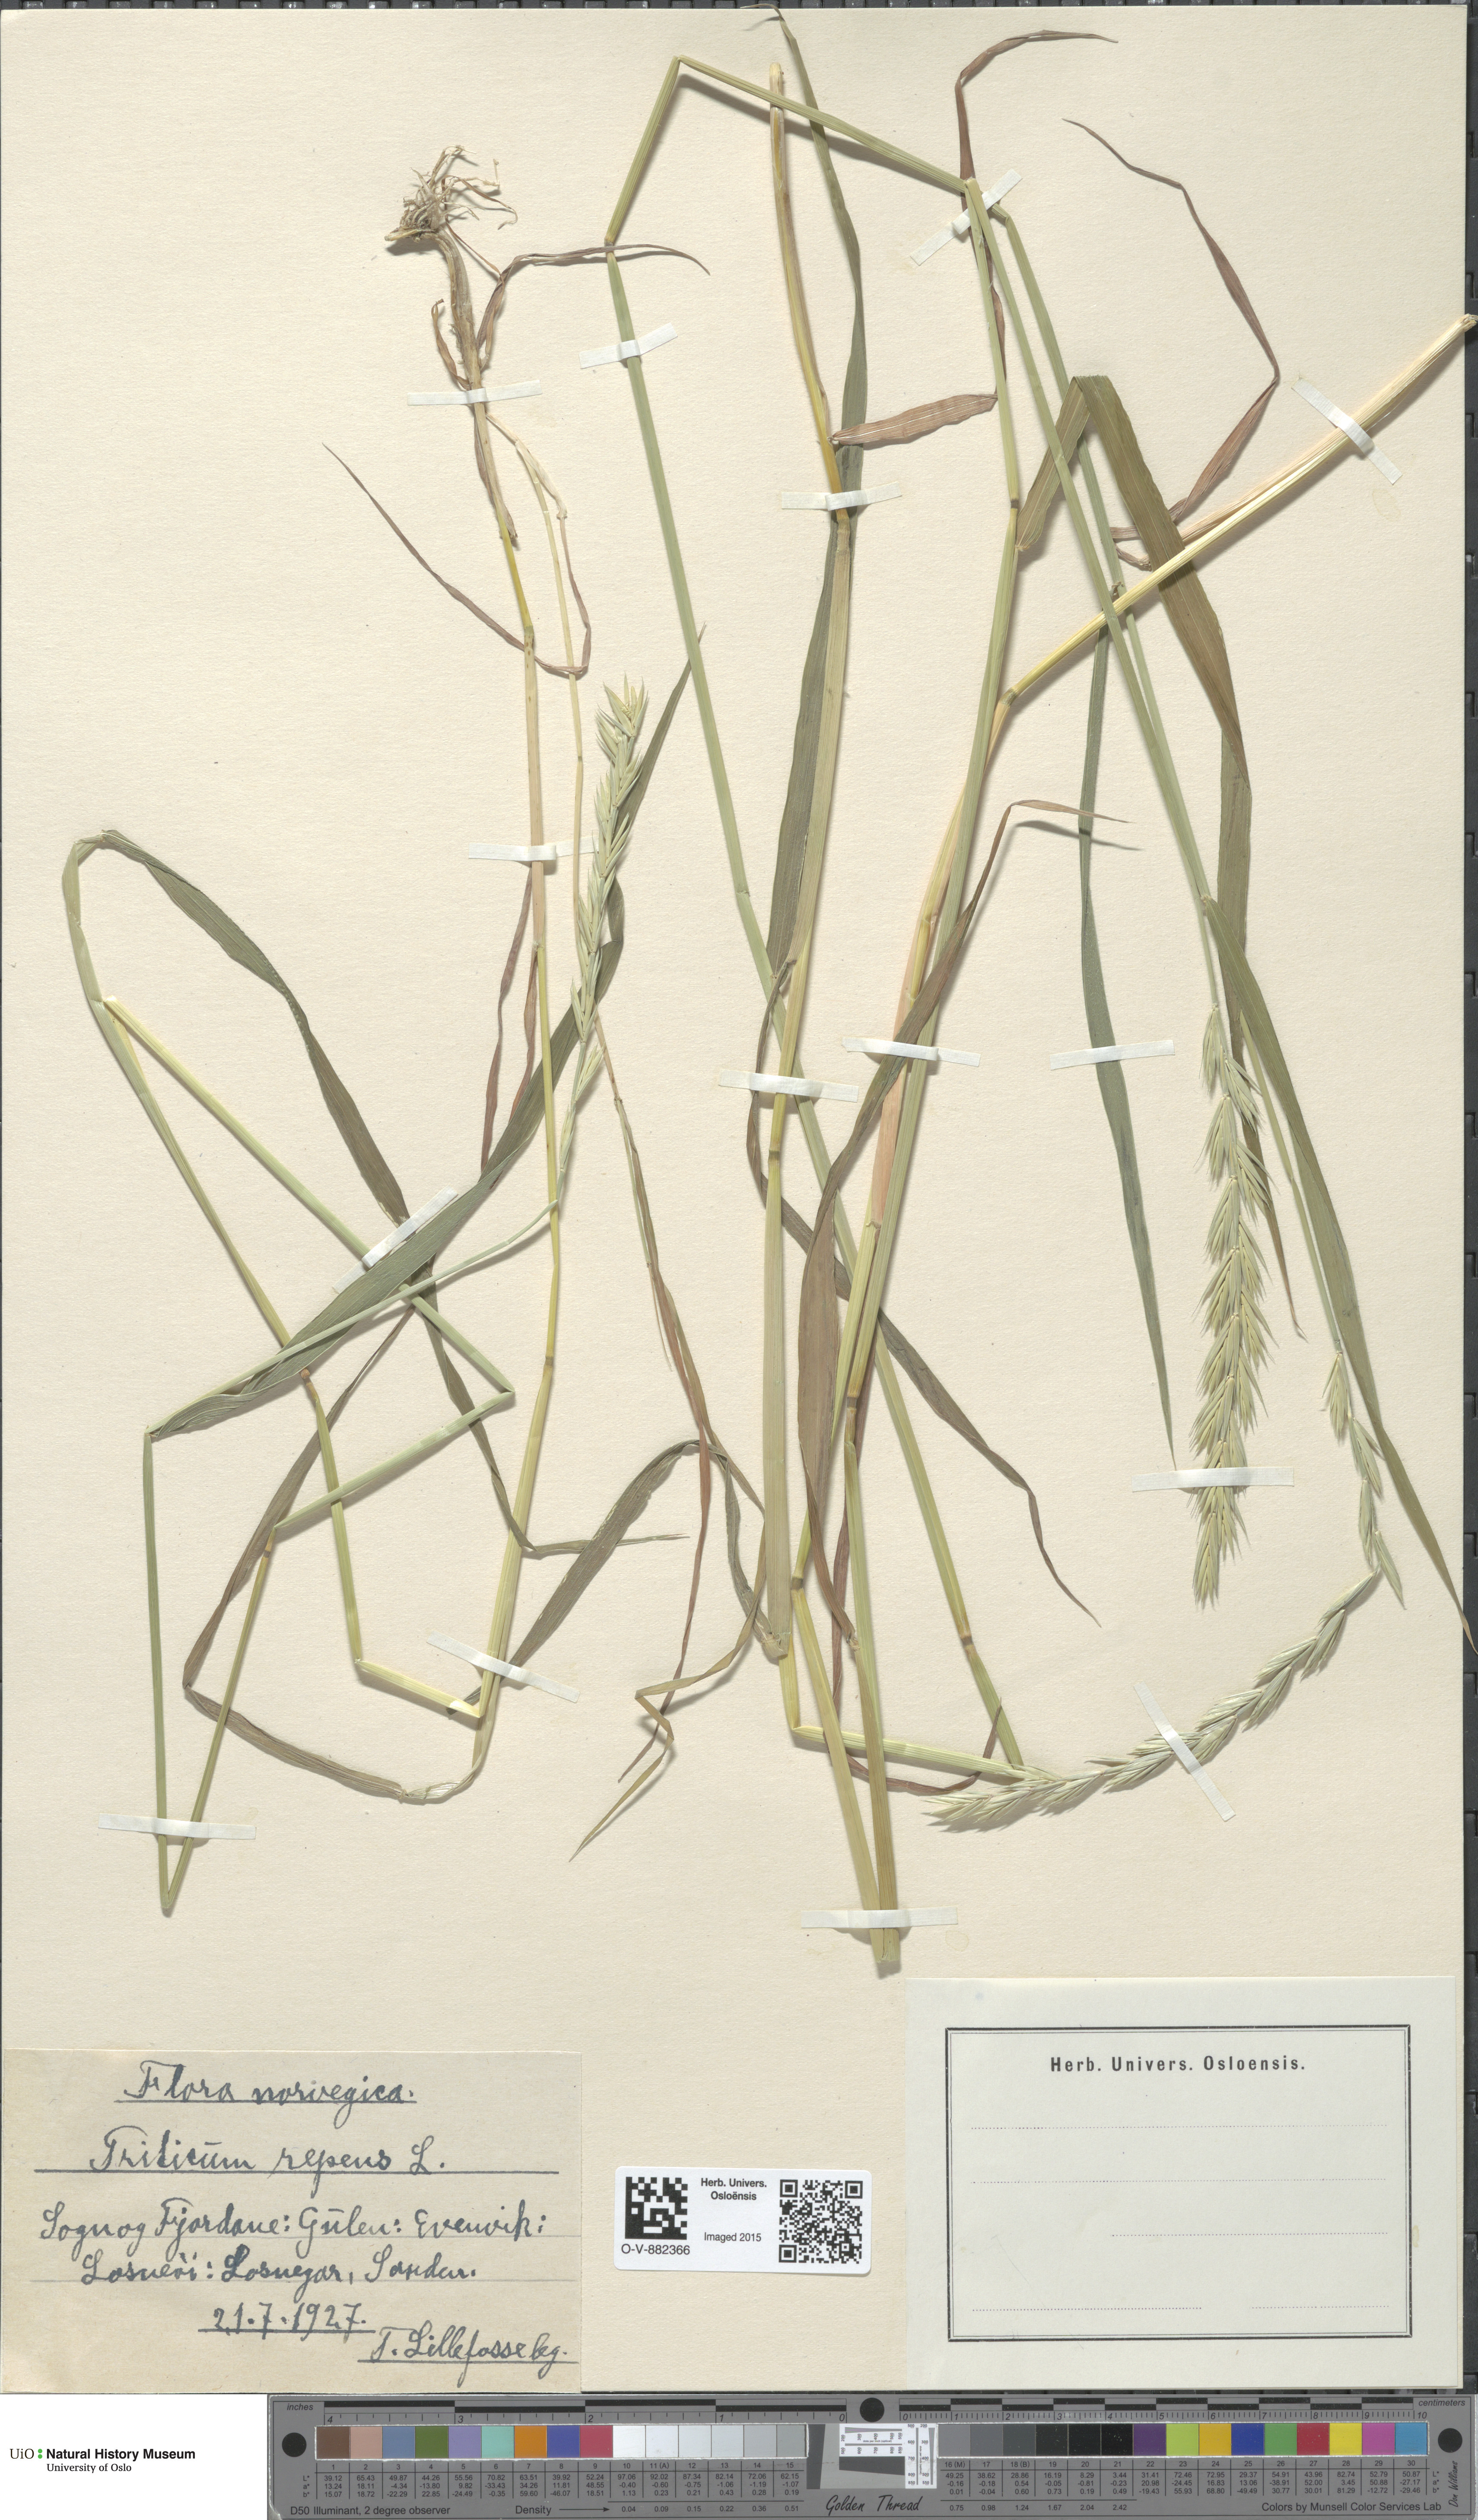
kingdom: Plantae
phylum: Tracheophyta
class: Liliopsida
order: Poales
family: Poaceae
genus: Elymus
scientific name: Elymus repens
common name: Quackgrass
